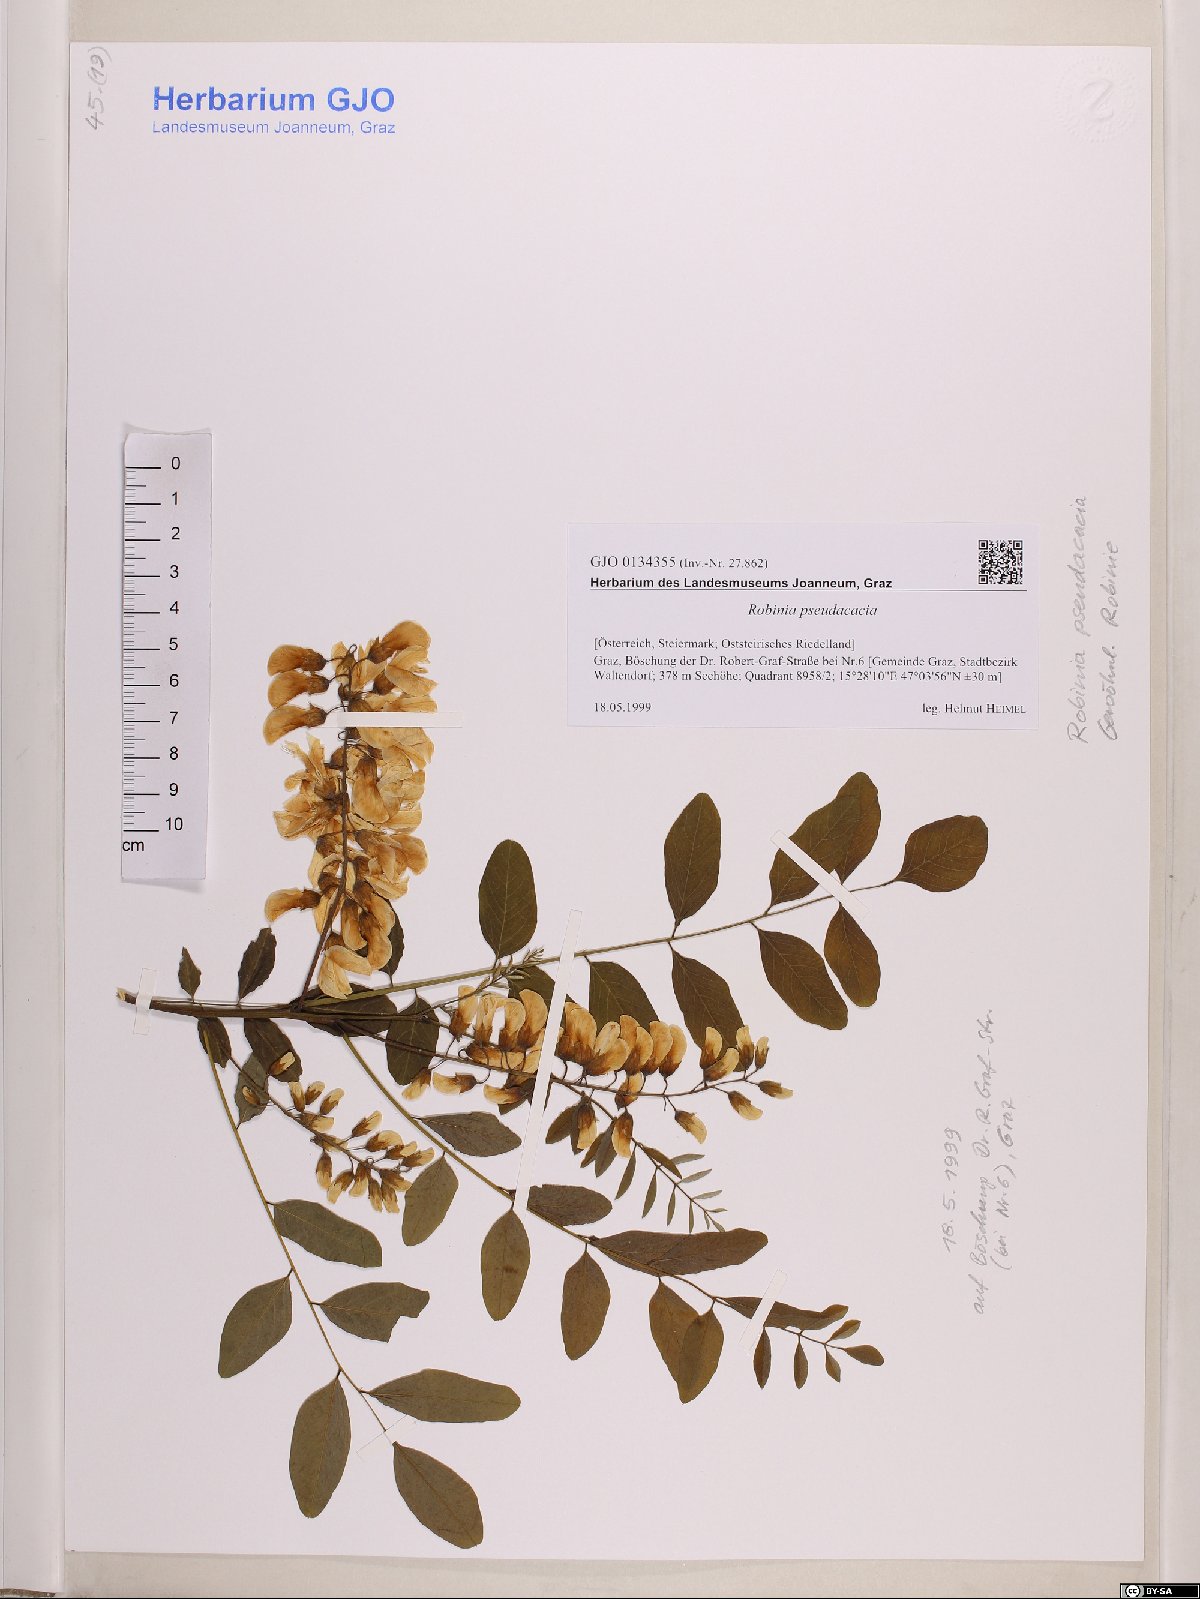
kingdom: Plantae
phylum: Tracheophyta
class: Magnoliopsida
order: Fabales
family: Fabaceae
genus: Robinia
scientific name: Robinia pseudoacacia
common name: Black locust
